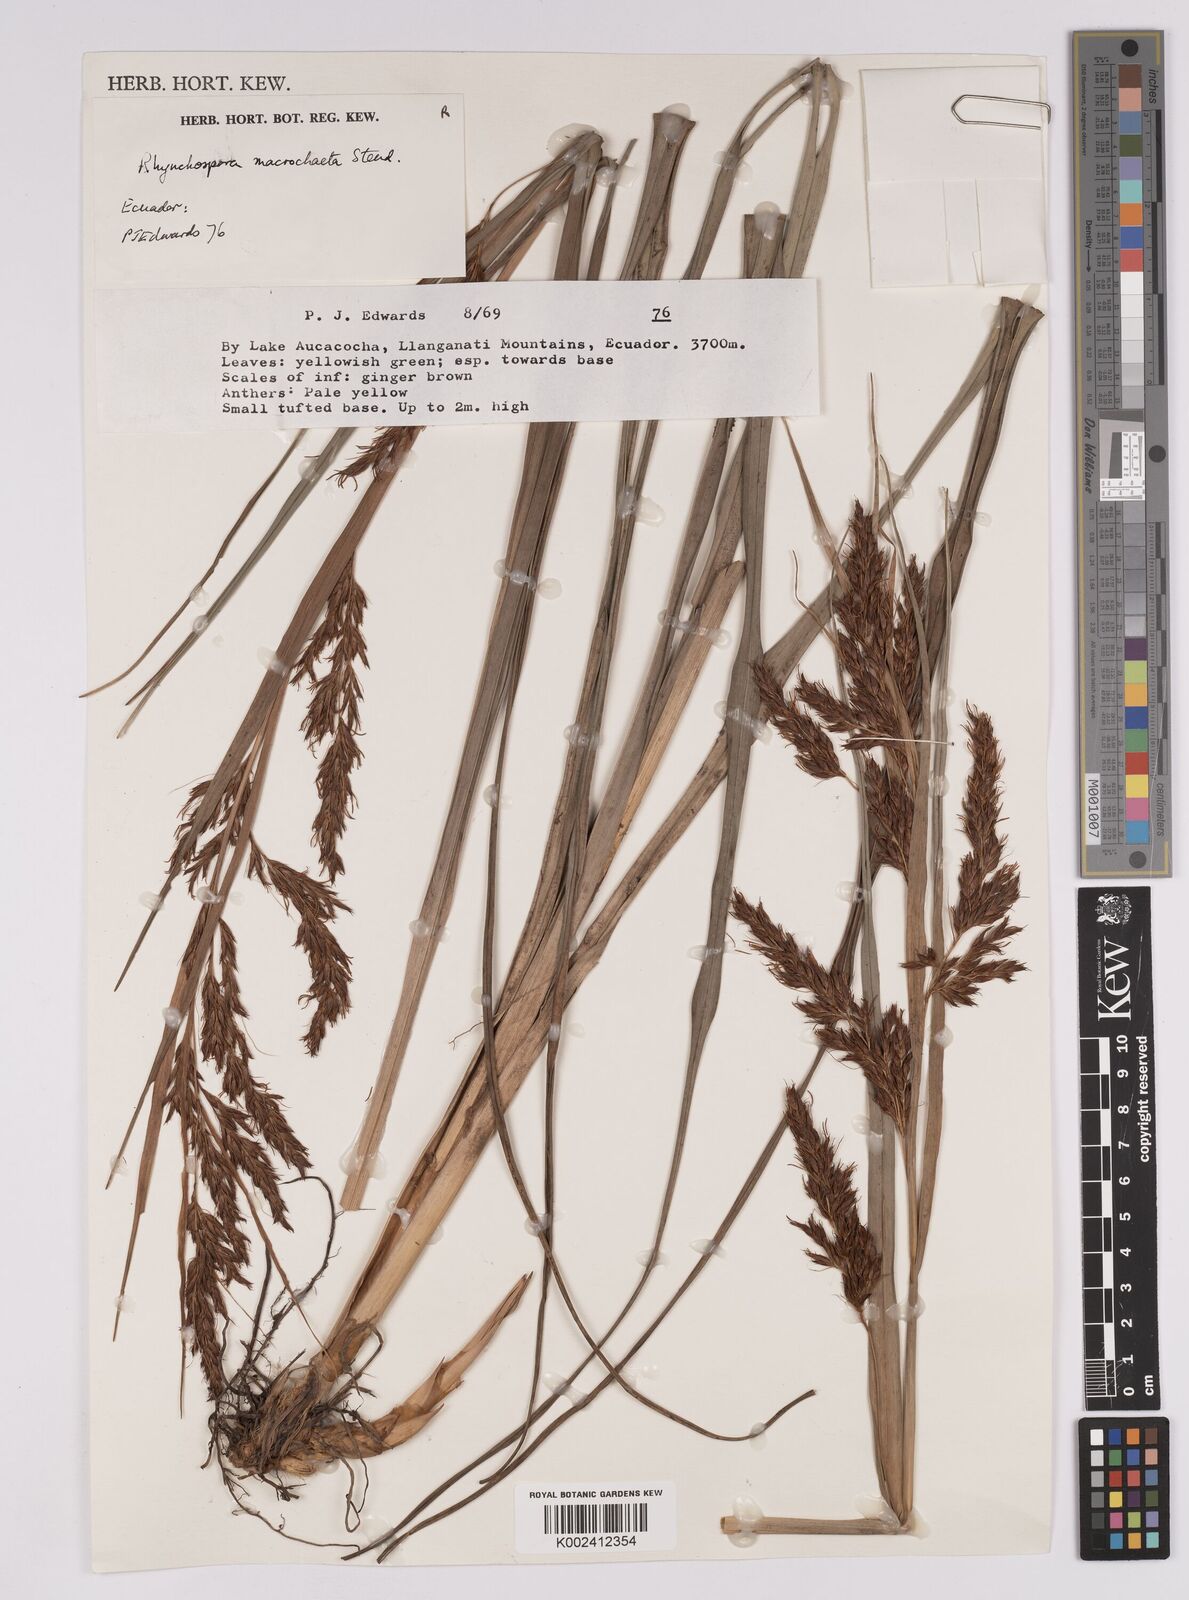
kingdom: Plantae
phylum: Tracheophyta
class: Liliopsida
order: Poales
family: Cyperaceae
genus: Rhynchospora
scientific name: Rhynchospora macrochaeta
